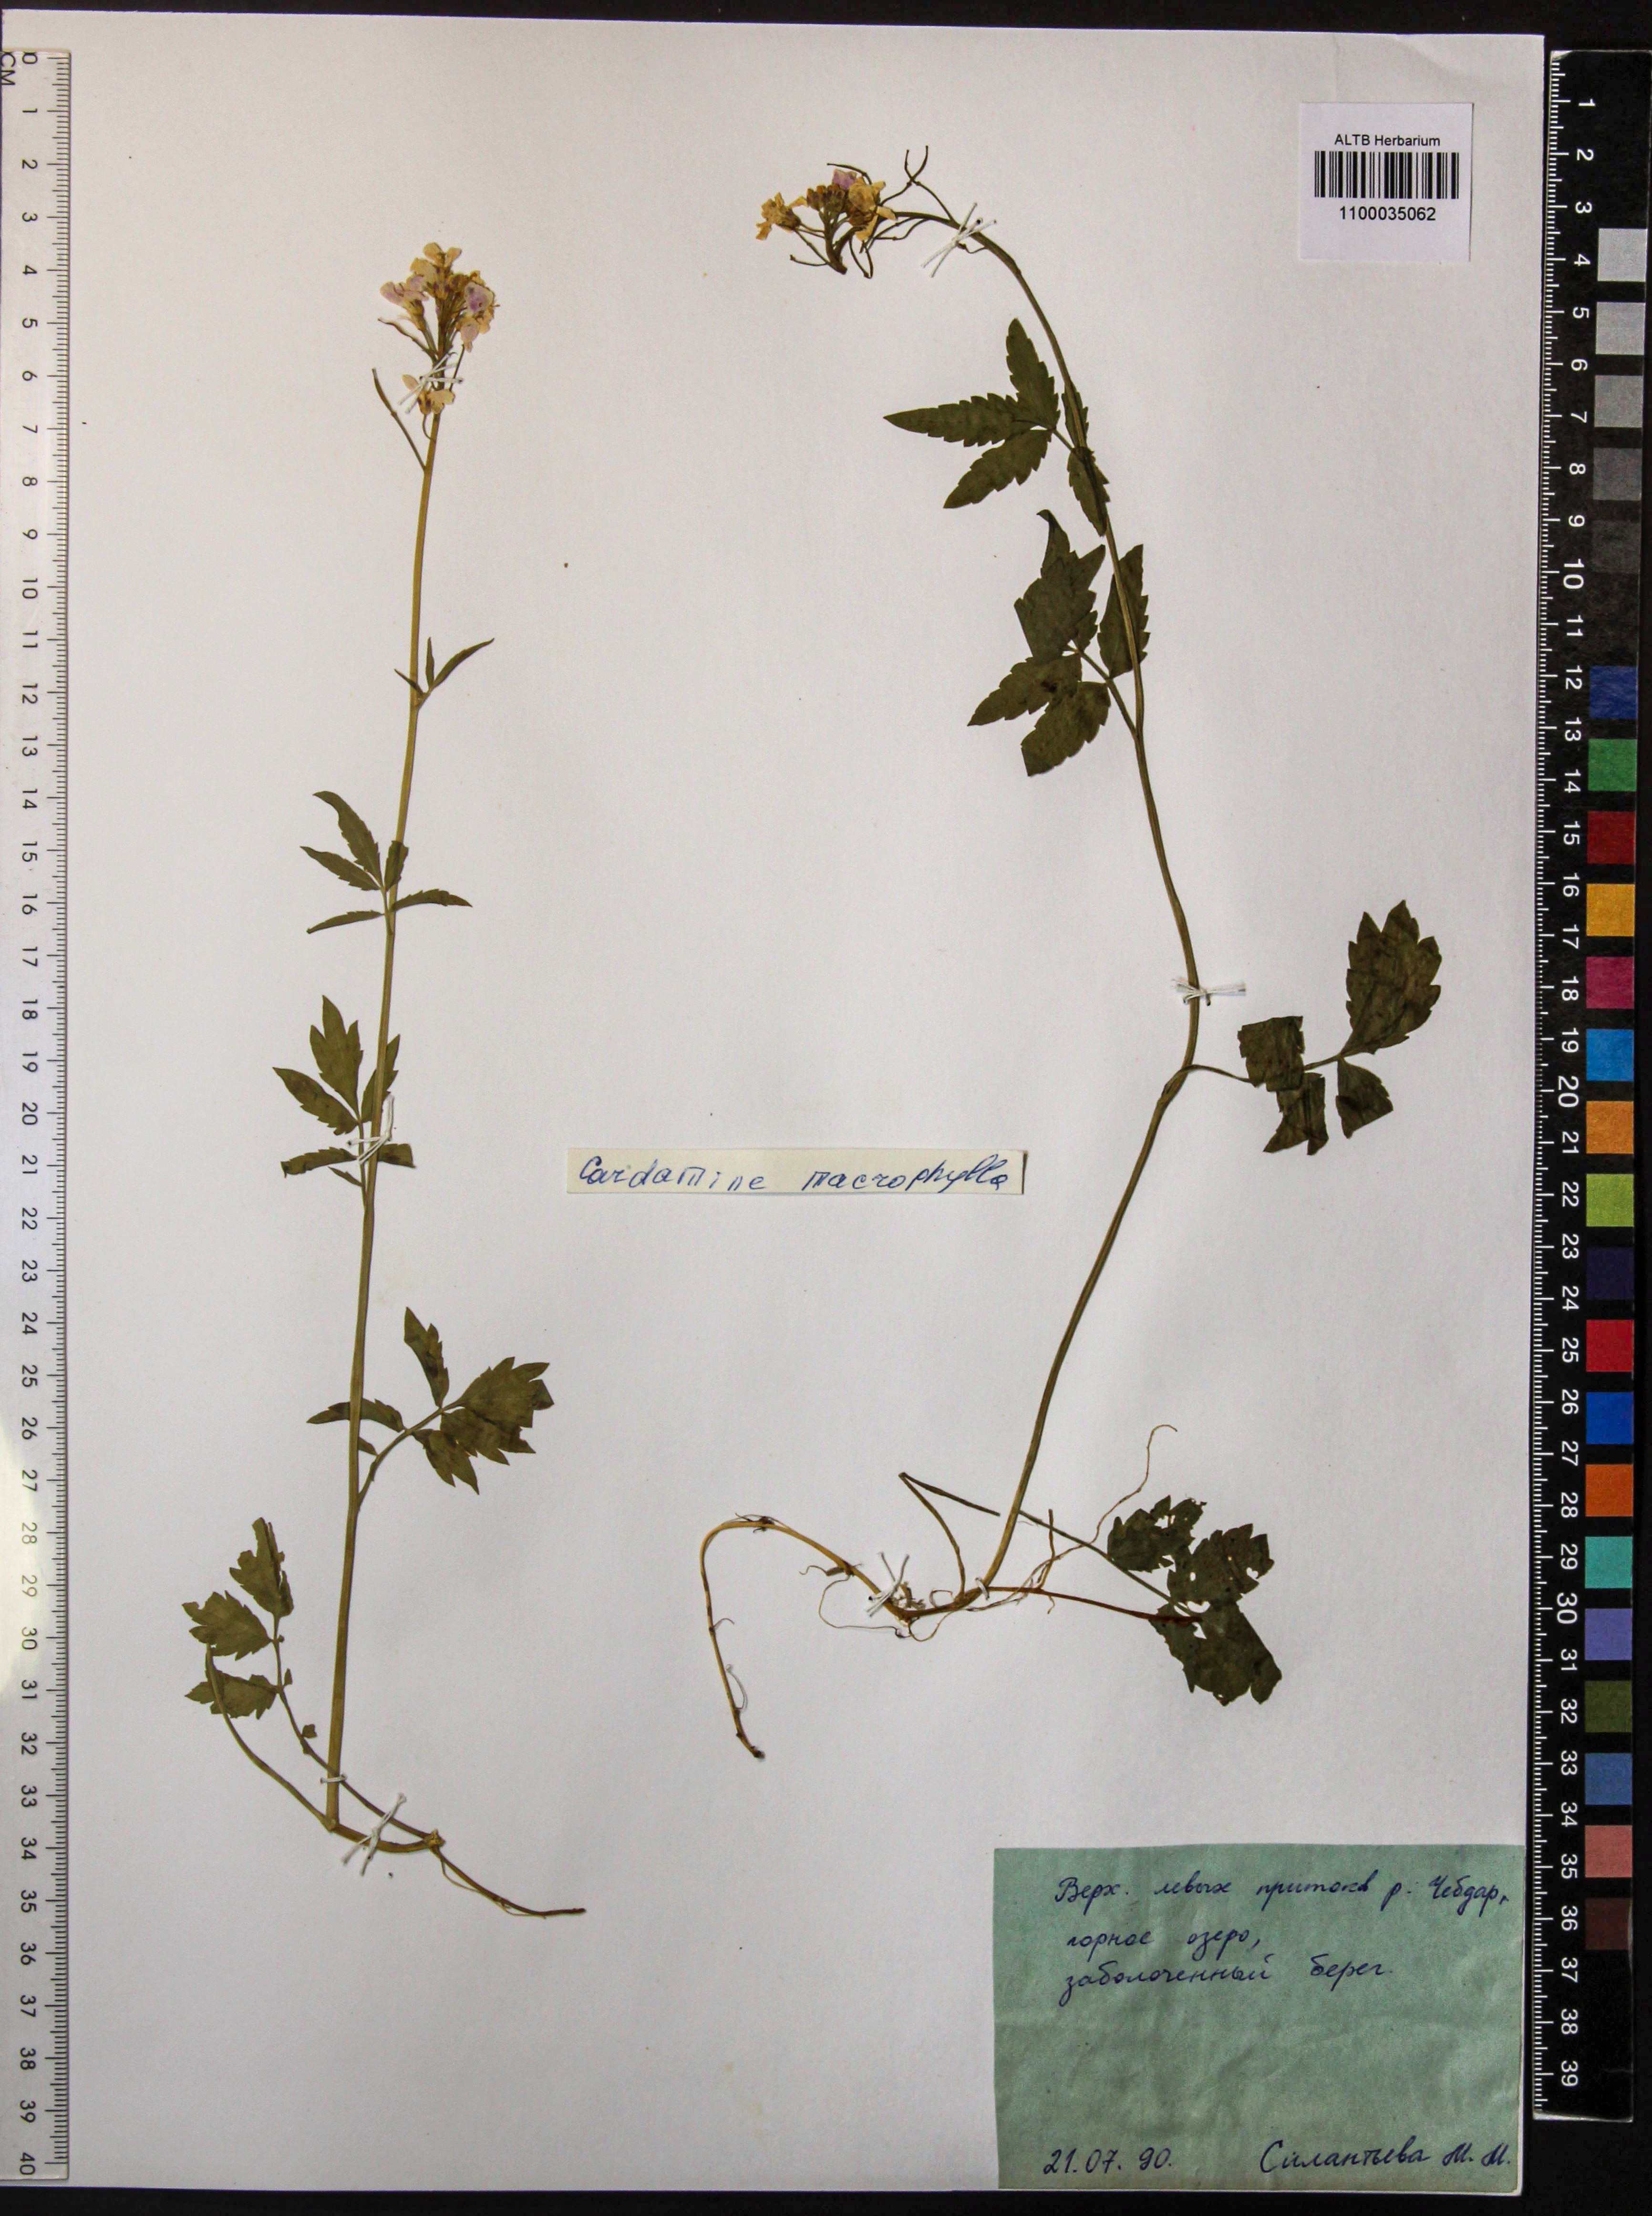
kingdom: Plantae
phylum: Tracheophyta
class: Magnoliopsida
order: Brassicales
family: Brassicaceae
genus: Cardamine
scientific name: Cardamine macrophylla
